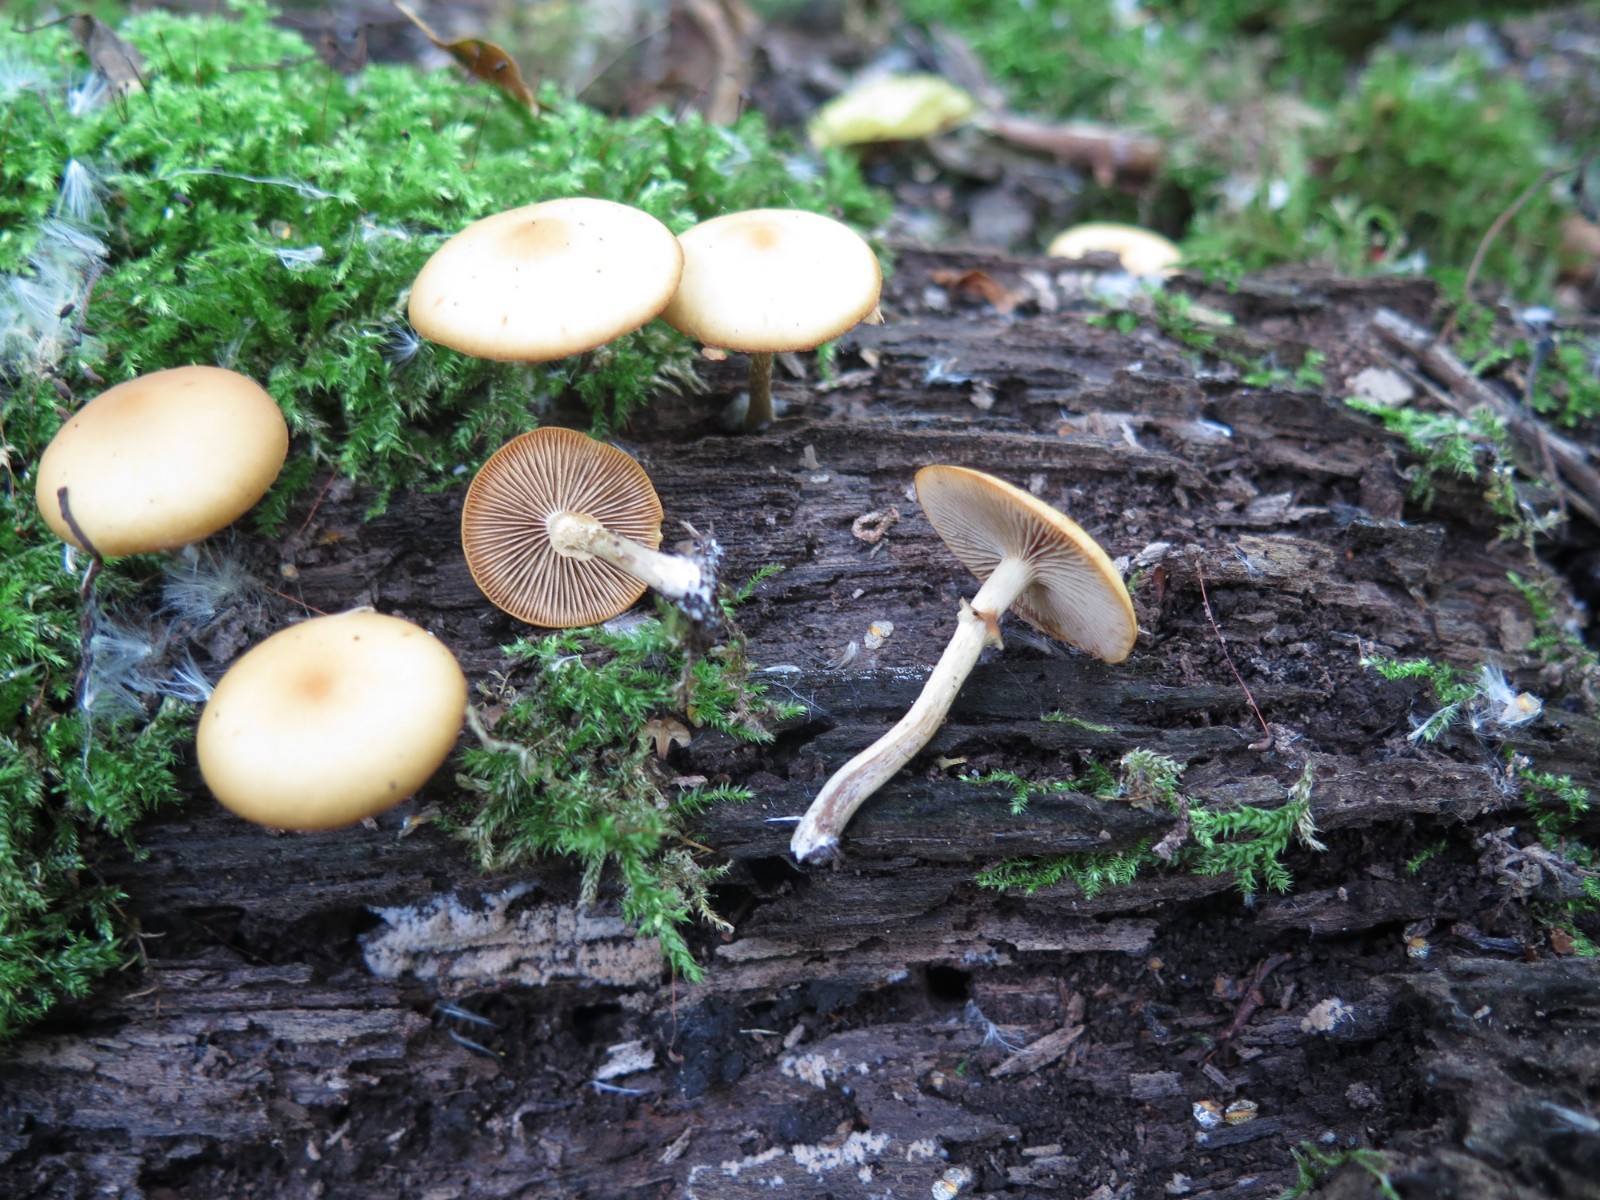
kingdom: Fungi
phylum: Basidiomycota
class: Agaricomycetes
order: Agaricales
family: Hymenogastraceae
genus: Galerina
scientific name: Galerina marginata
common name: randbæltet hjelmhat
